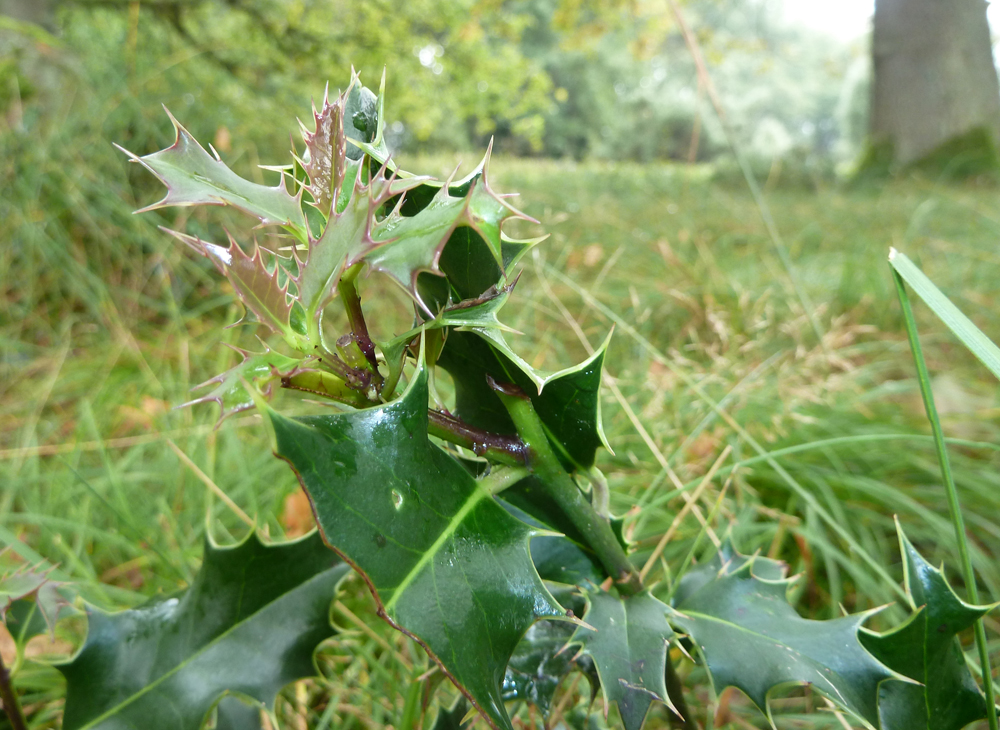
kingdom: Plantae
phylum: Tracheophyta
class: Magnoliopsida
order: Aquifoliales
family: Aquifoliaceae
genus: Ilex
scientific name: Ilex aquifolium
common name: English holly
